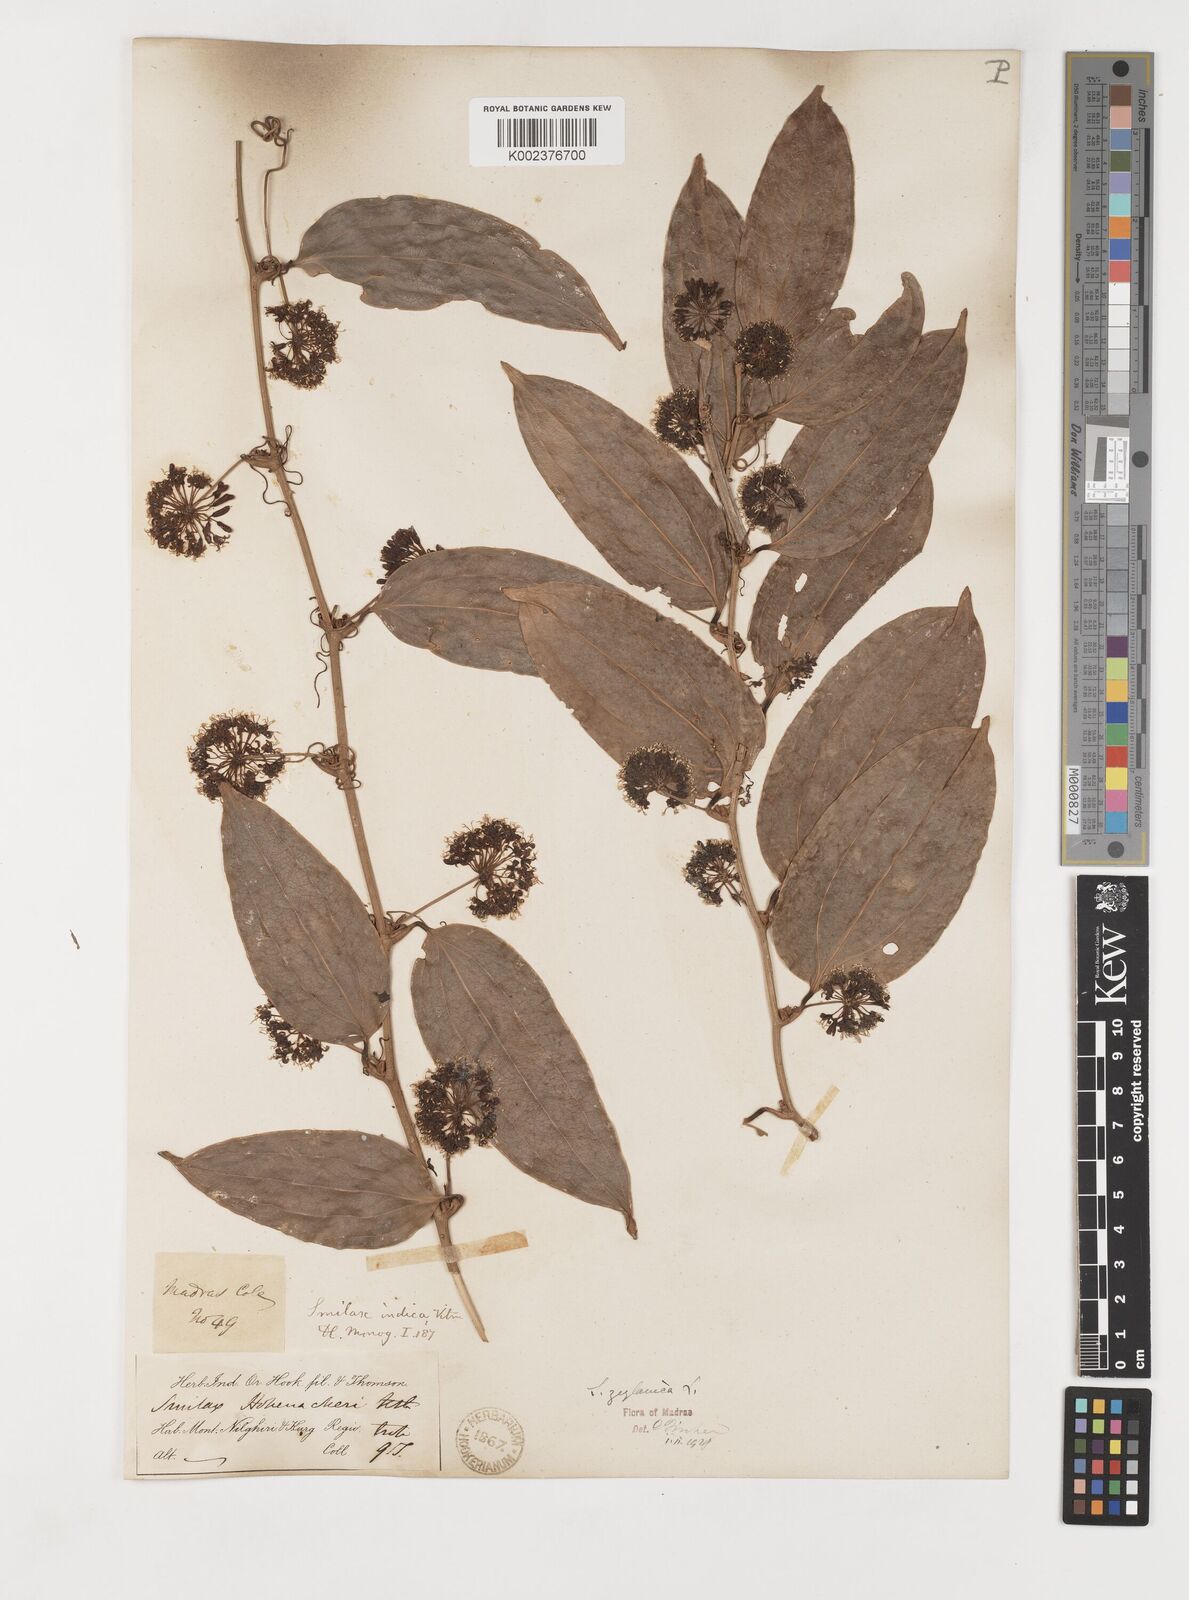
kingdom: Plantae
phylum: Tracheophyta
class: Liliopsida
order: Liliales
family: Smilacaceae
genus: Smilax
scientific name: Smilax zeylanica
